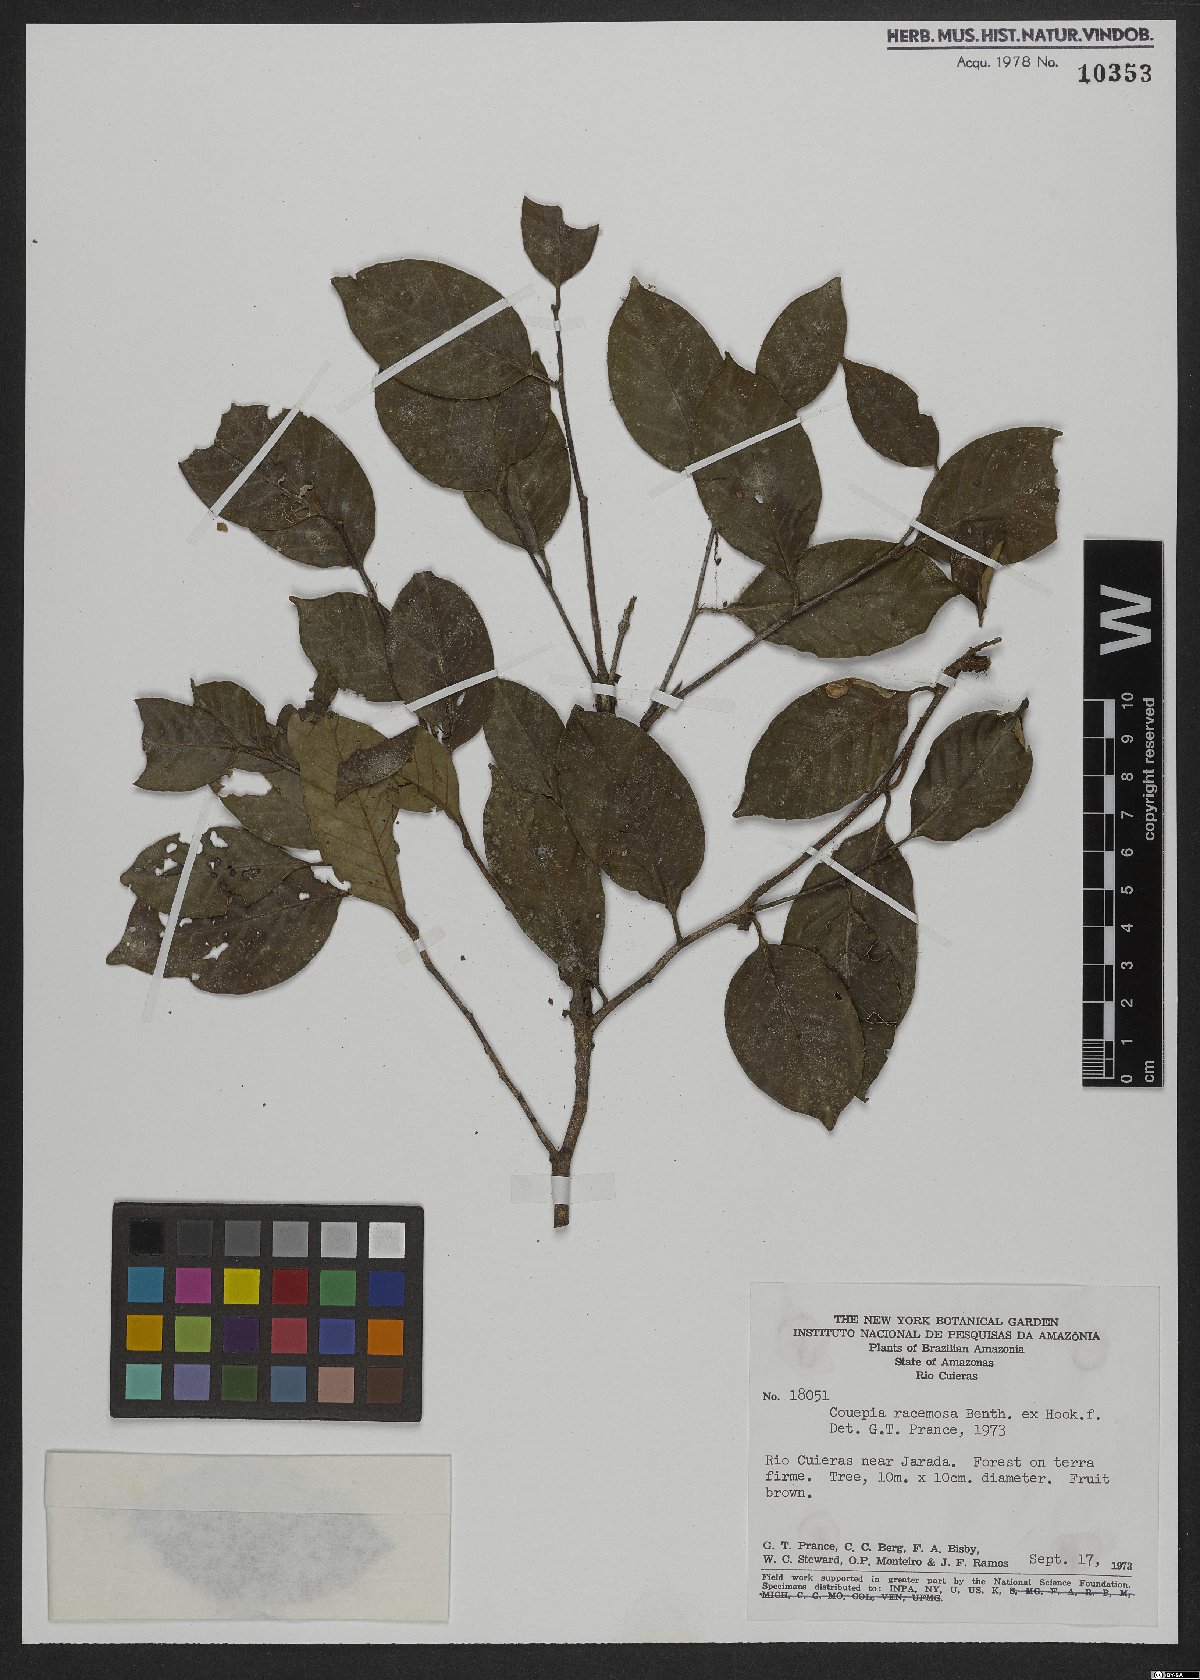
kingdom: Plantae
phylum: Tracheophyta
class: Magnoliopsida
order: Malpighiales
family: Chrysobalanaceae
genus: Gaulettia
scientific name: Gaulettia racemosa
